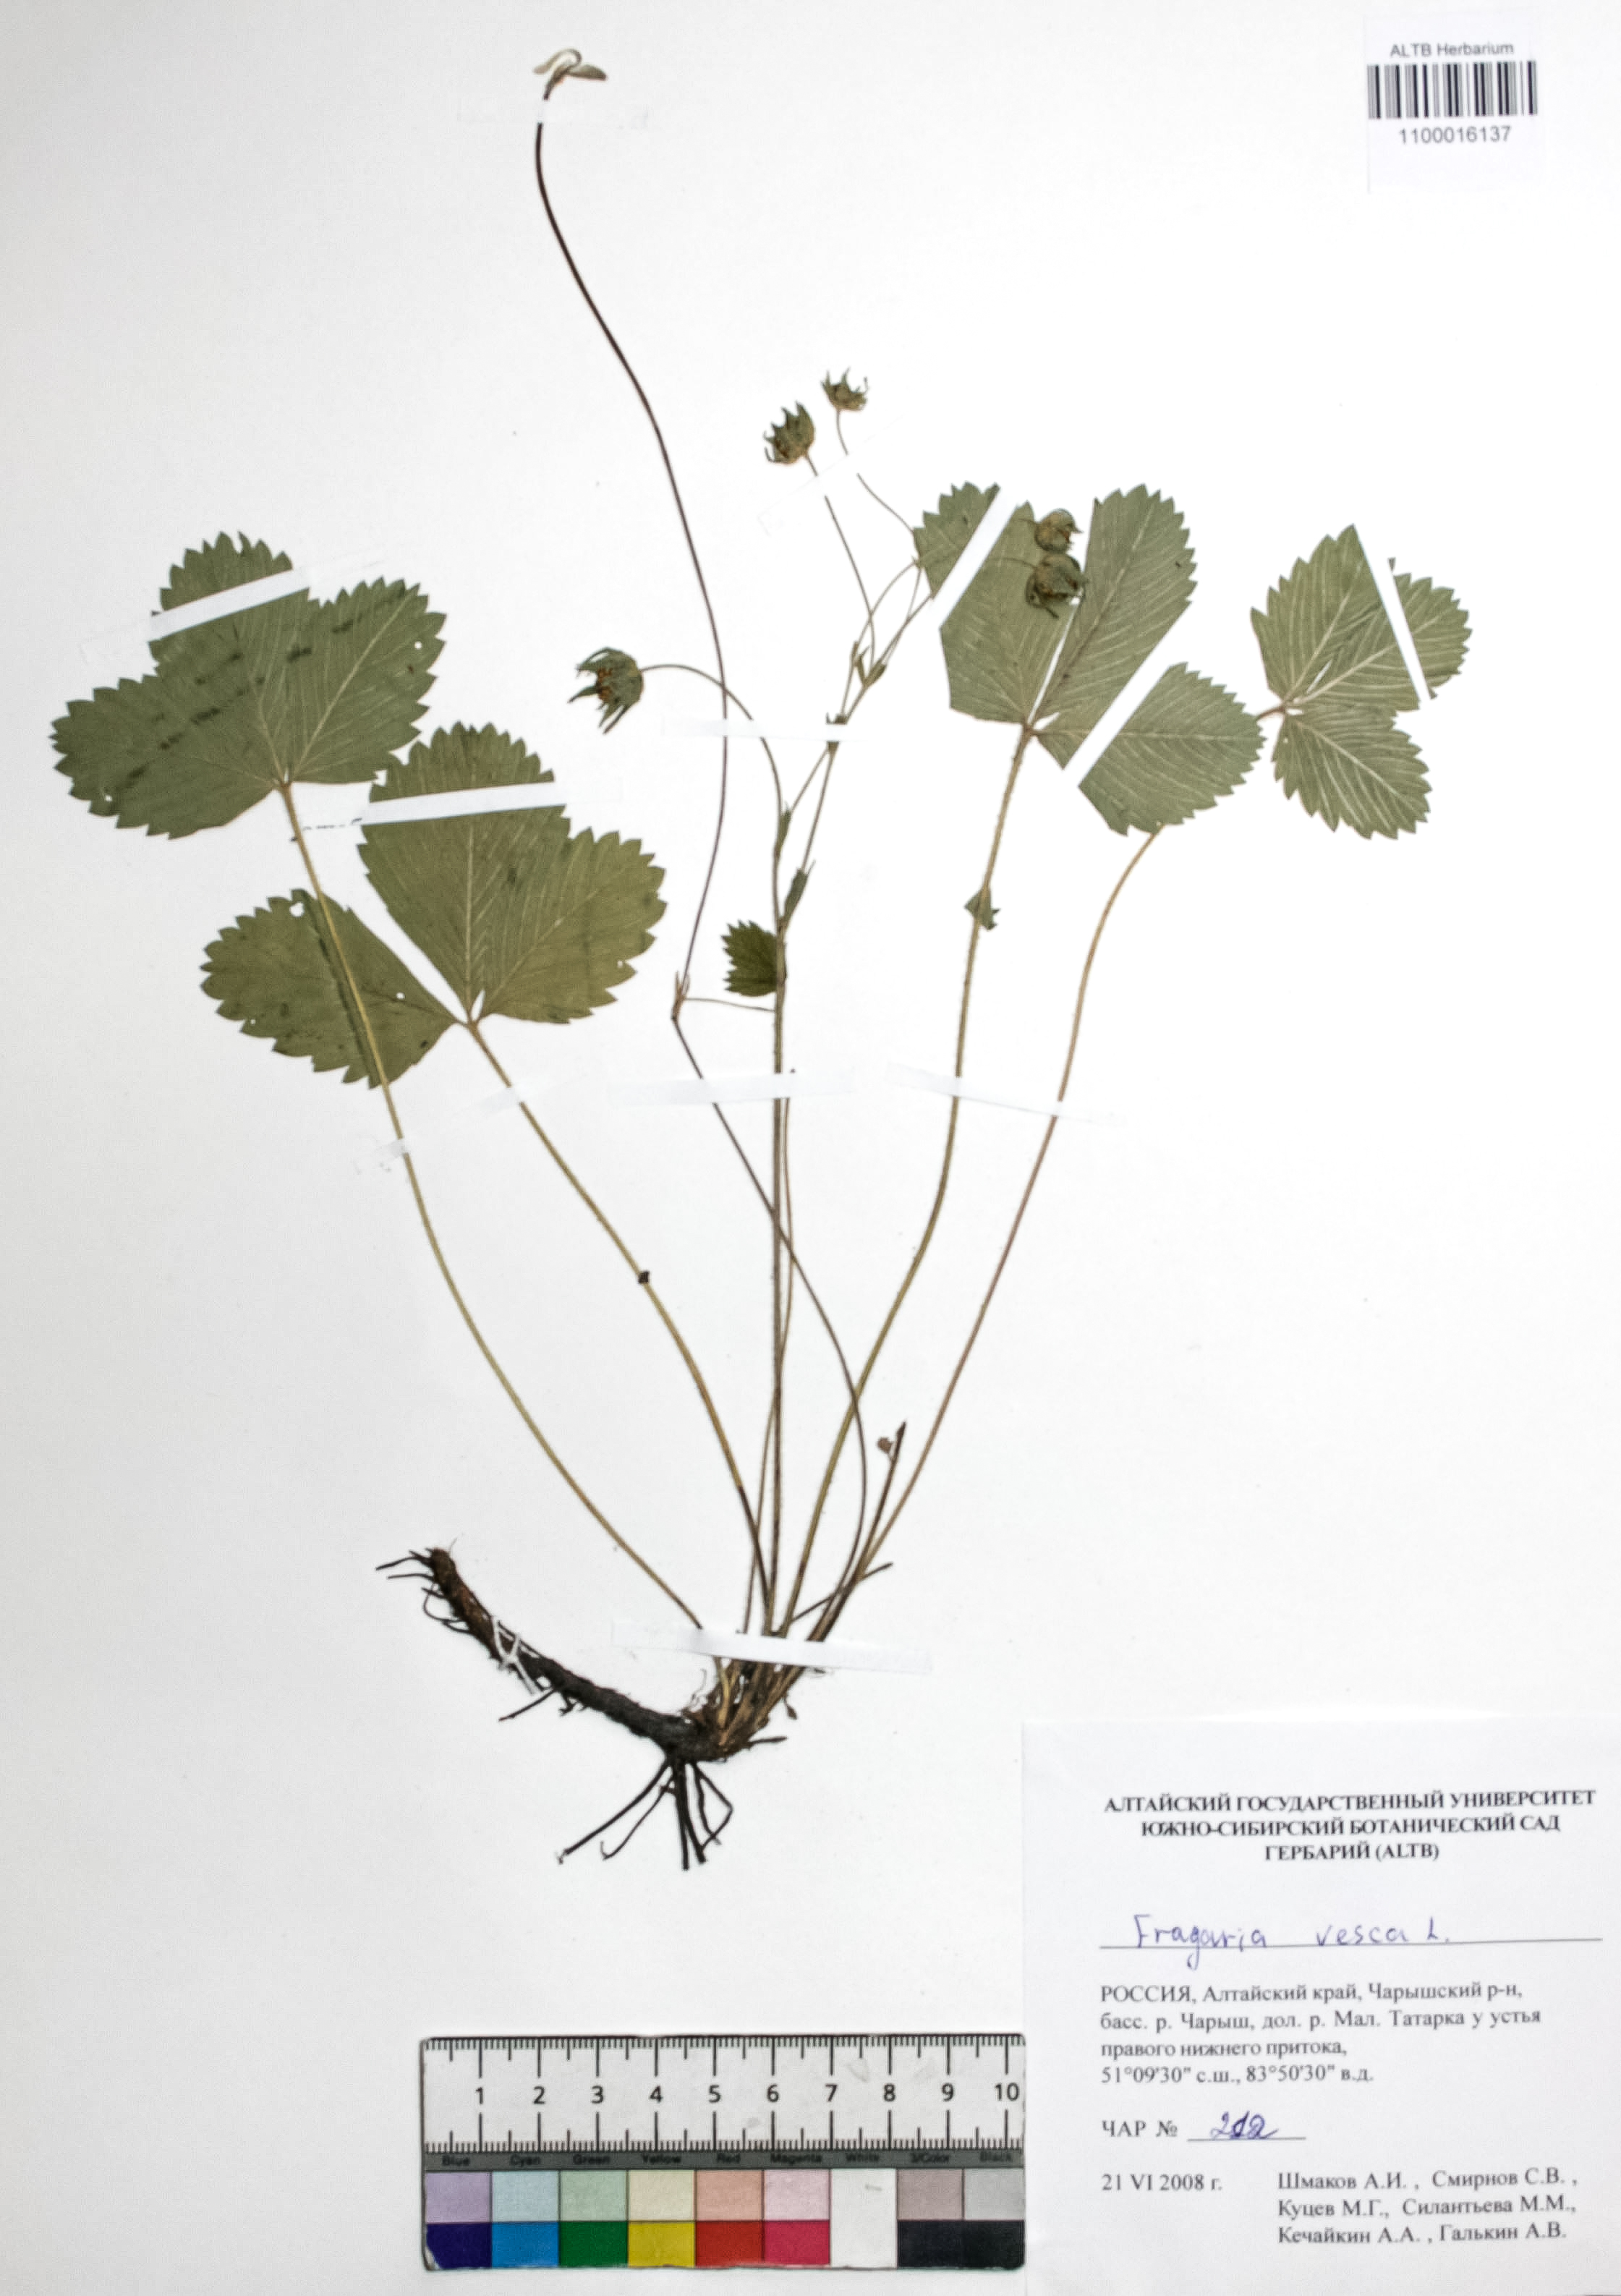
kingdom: Plantae
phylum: Tracheophyta
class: Magnoliopsida
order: Rosales
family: Rosaceae
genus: Fragaria
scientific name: Fragaria vesca
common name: Wild strawberry
